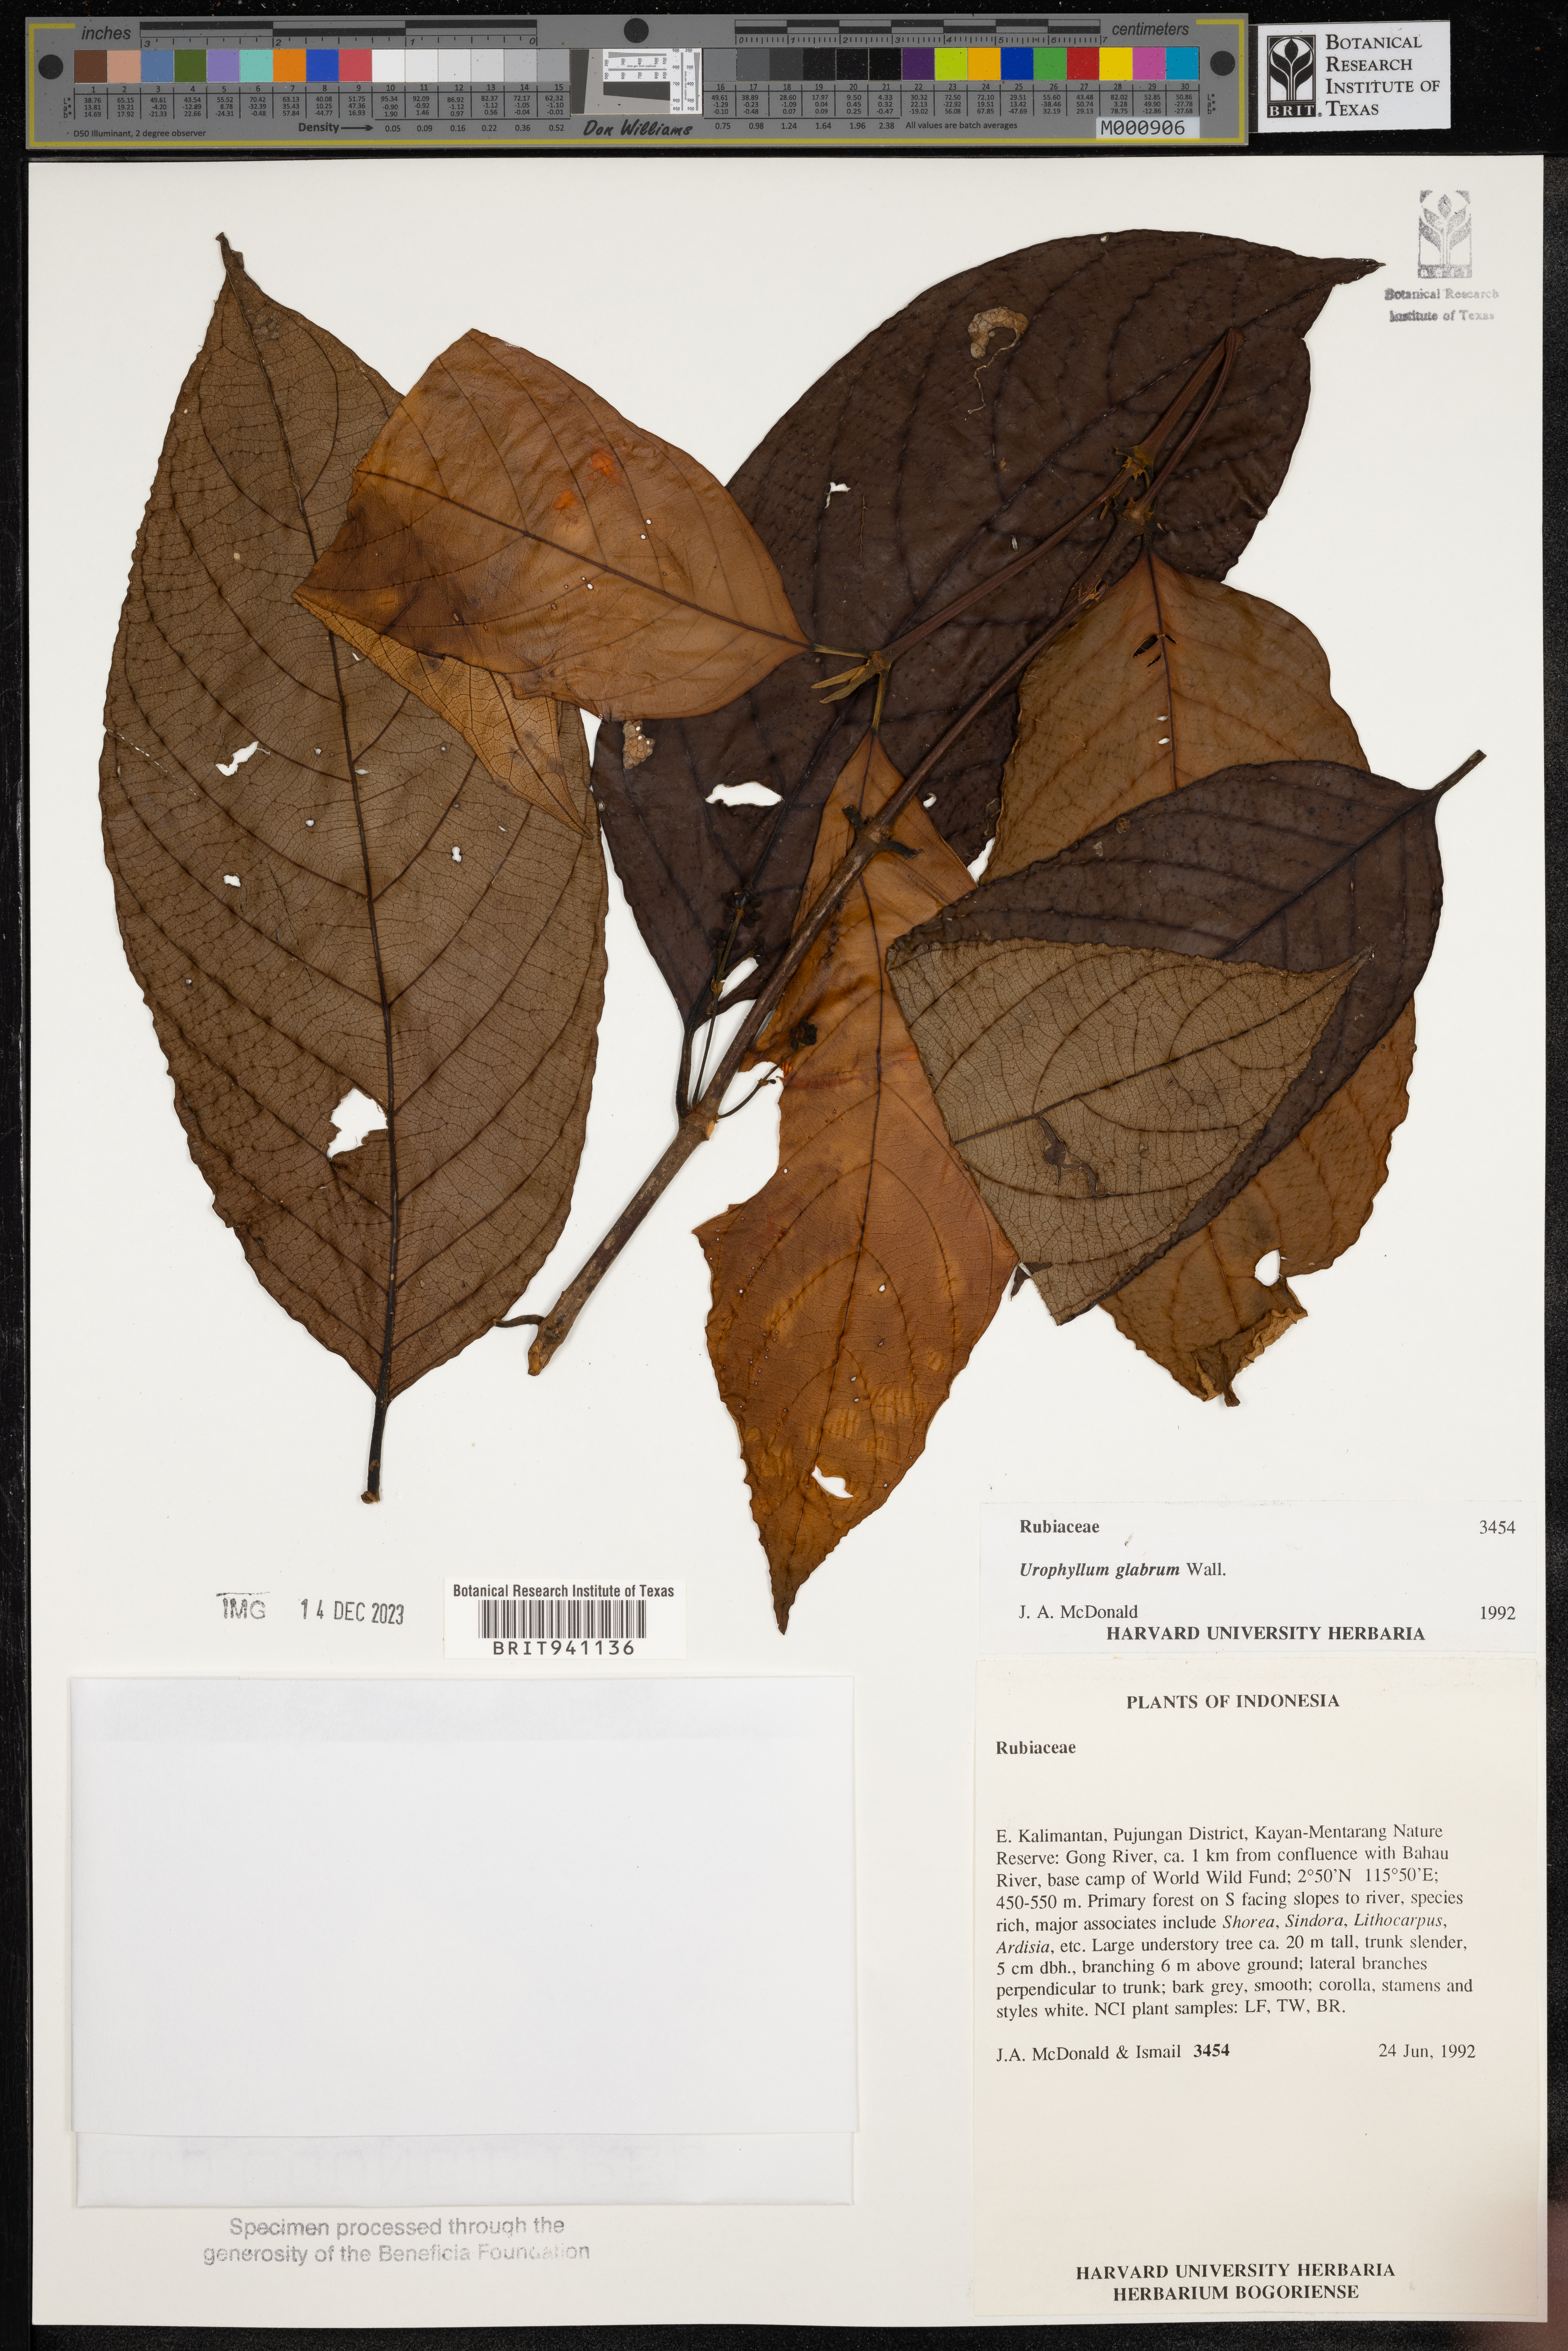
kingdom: Plantae
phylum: Tracheophyta
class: Magnoliopsida
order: Gentianales
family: Rubiaceae
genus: Urophyllum
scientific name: Urophyllum
